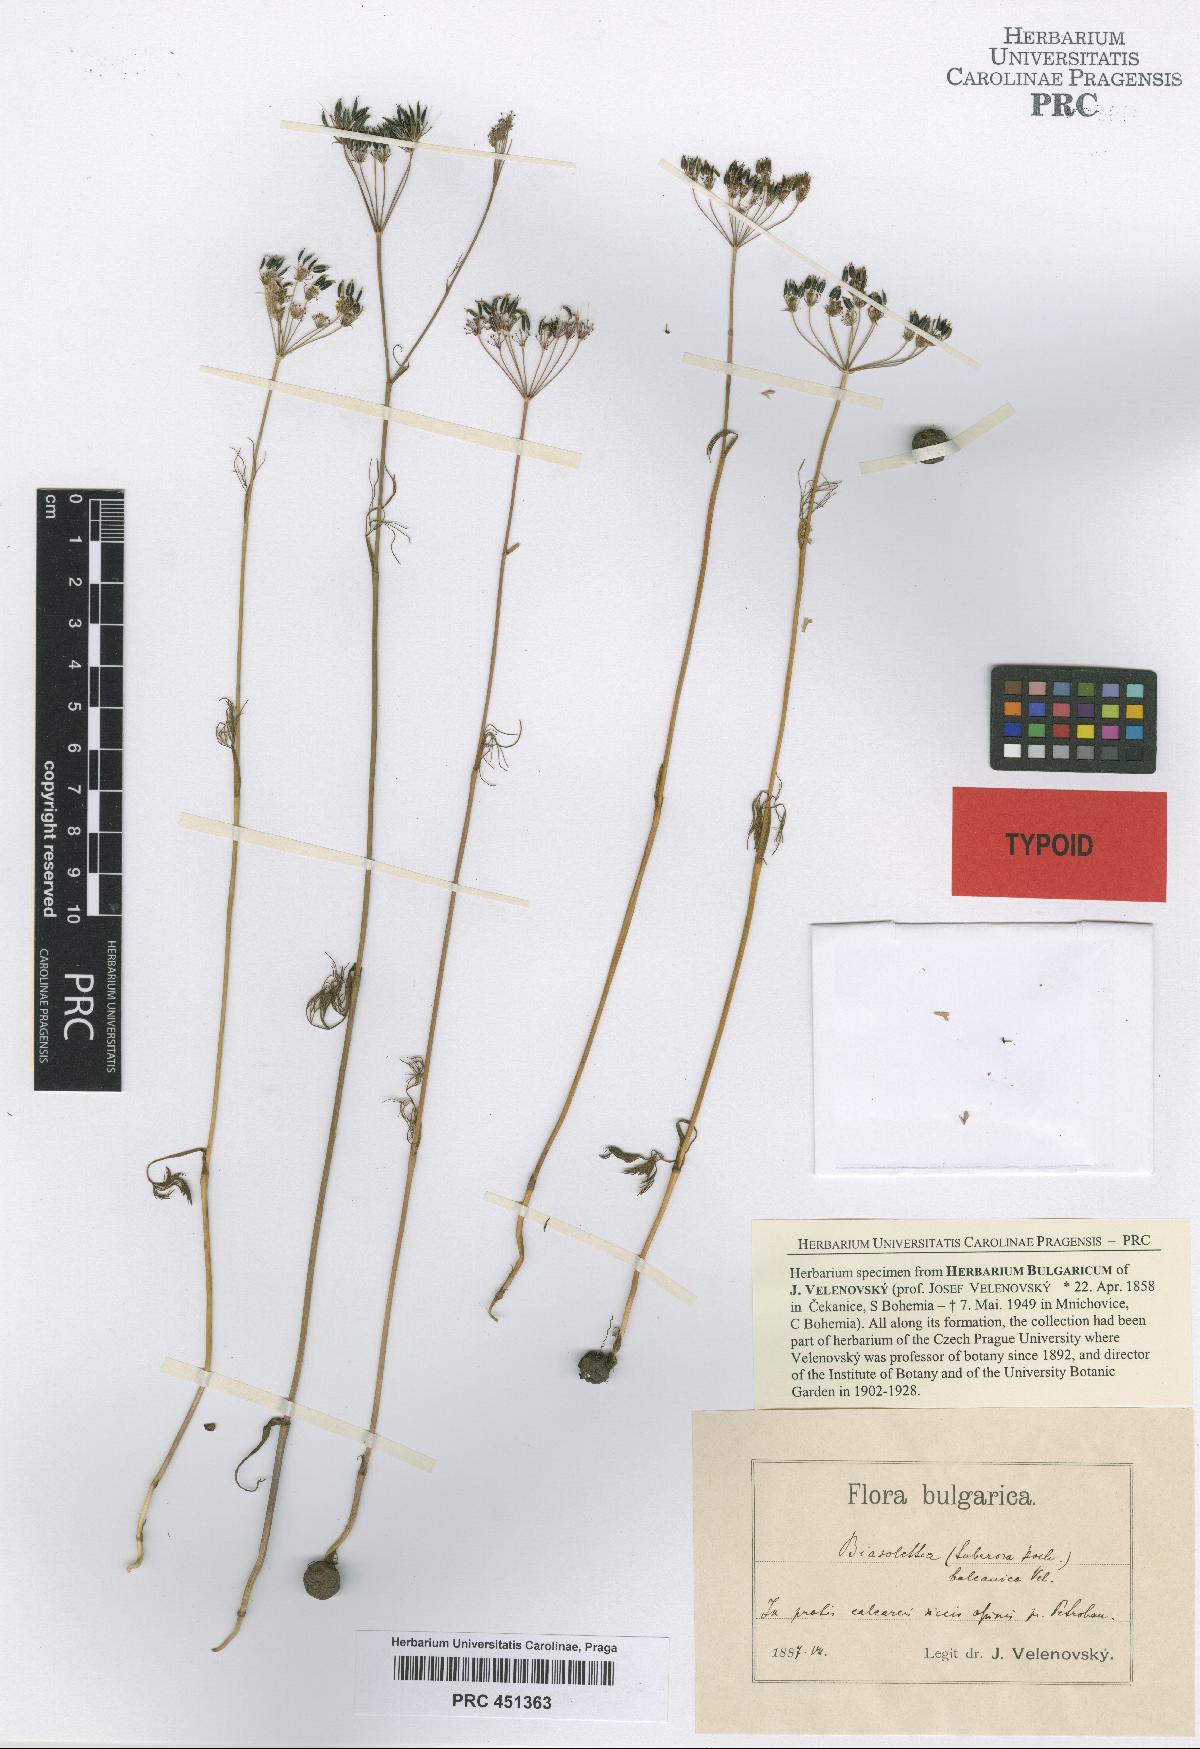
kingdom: Plantae
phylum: Tracheophyta
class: Magnoliopsida
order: Apiales
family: Apiaceae
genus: Geocaryum
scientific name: Geocaryum capillifolium
